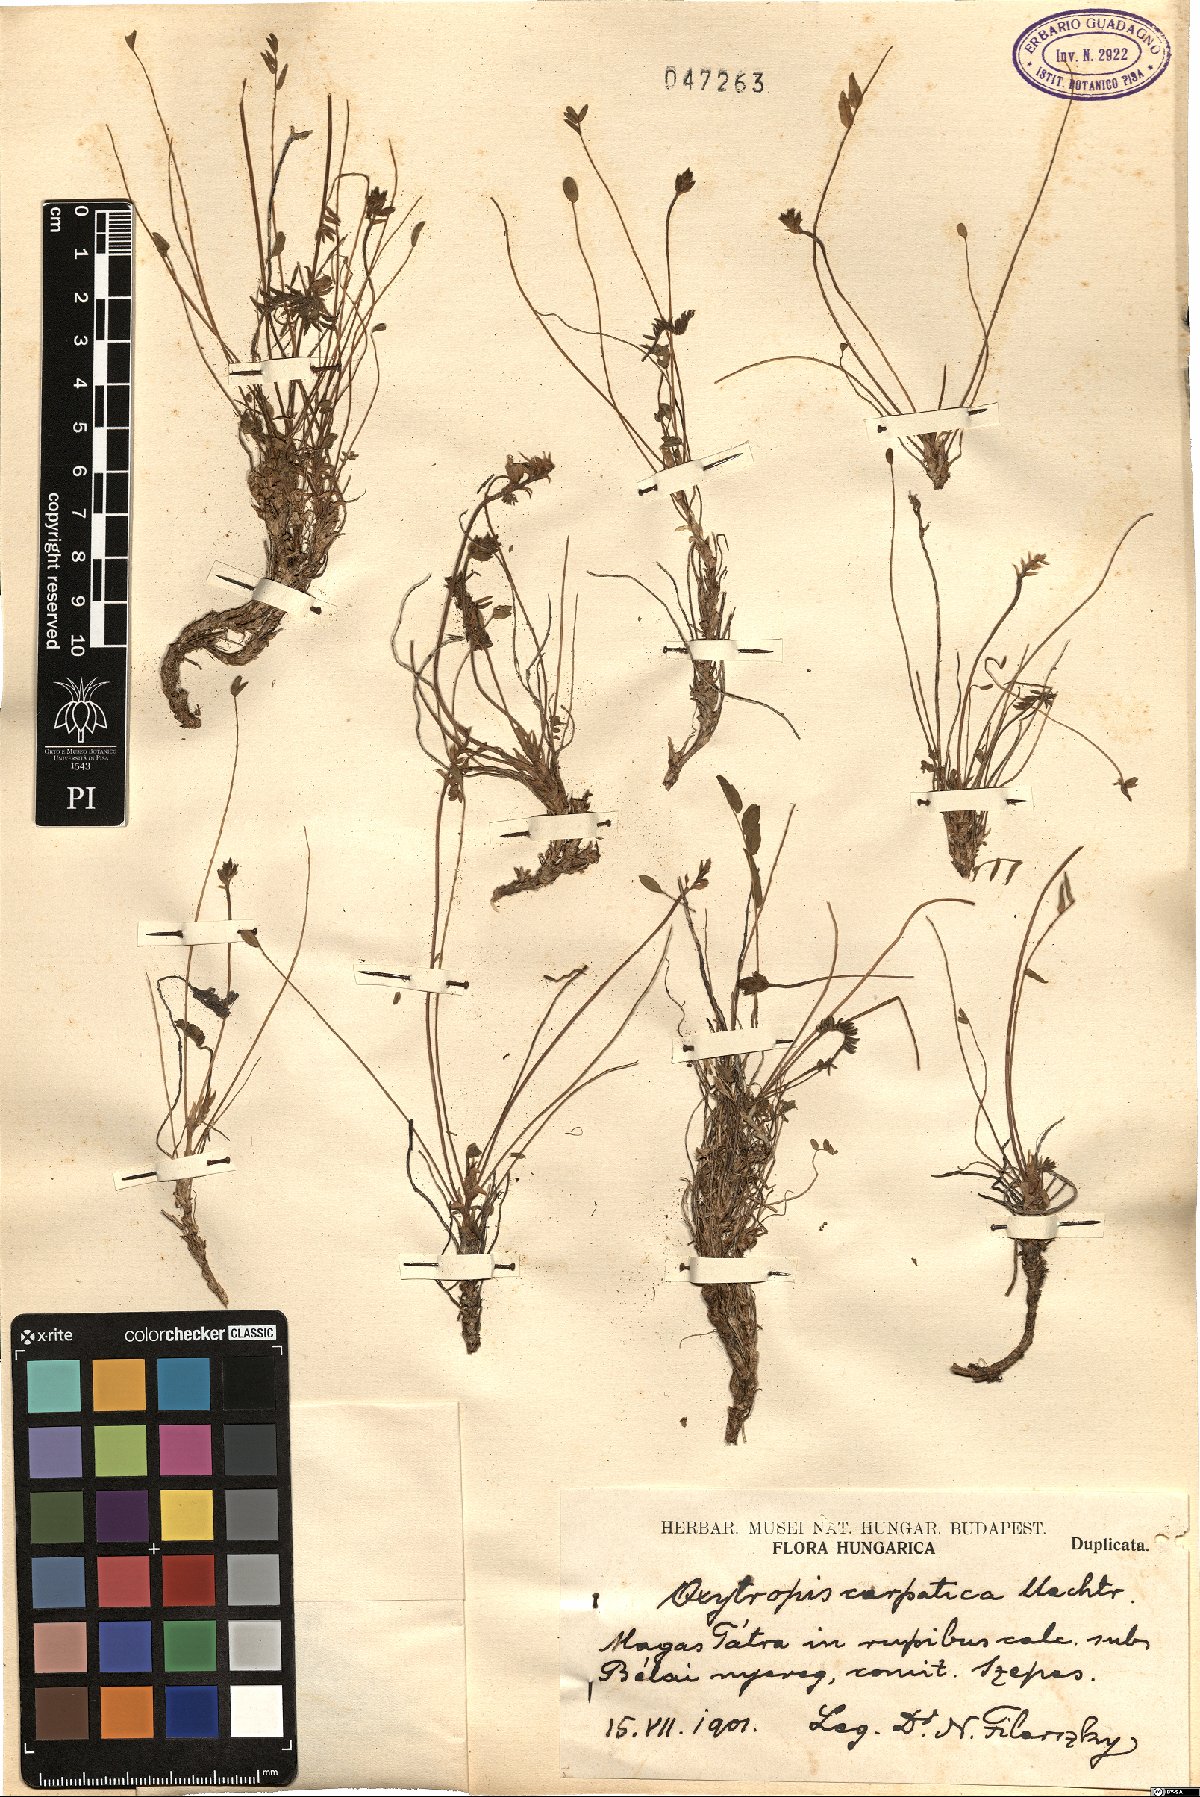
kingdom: Plantae
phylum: Tracheophyta
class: Magnoliopsida
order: Fabales
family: Fabaceae
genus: Oxytropis
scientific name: Oxytropis carpatica
